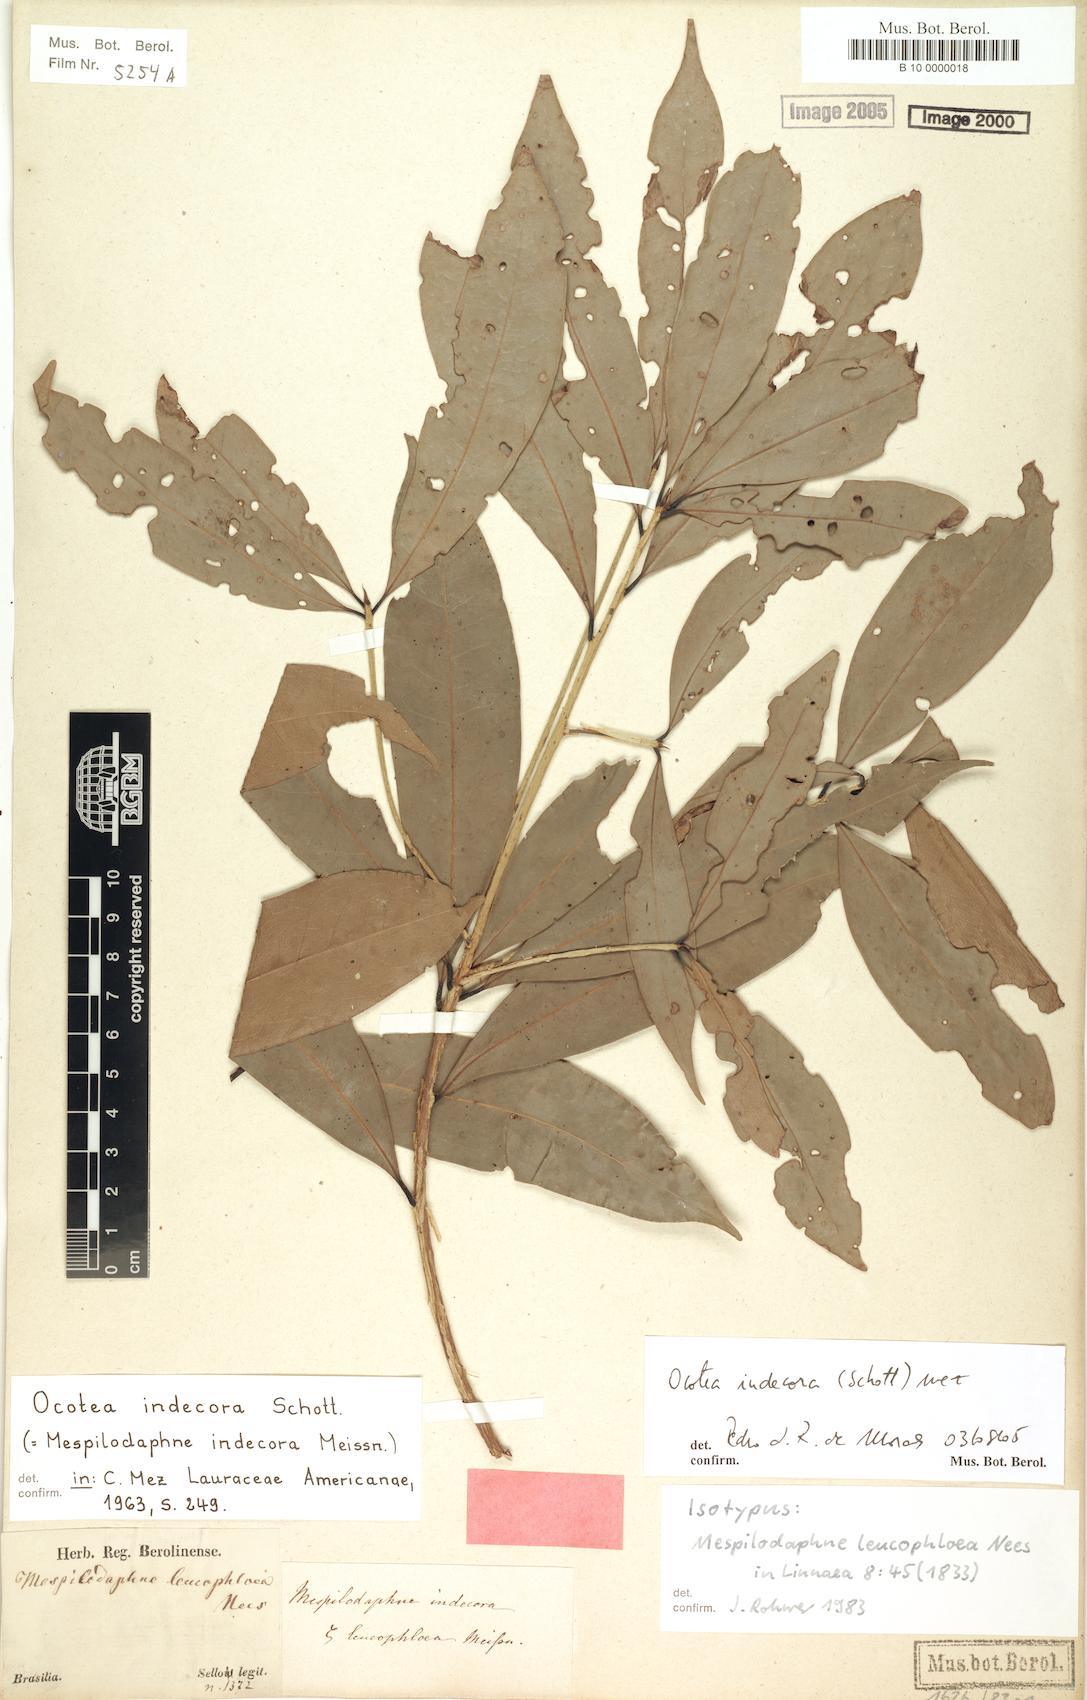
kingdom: Plantae
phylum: Tracheophyta
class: Magnoliopsida
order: Laurales
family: Lauraceae
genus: Mespilodaphne
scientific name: Mespilodaphne indecora
